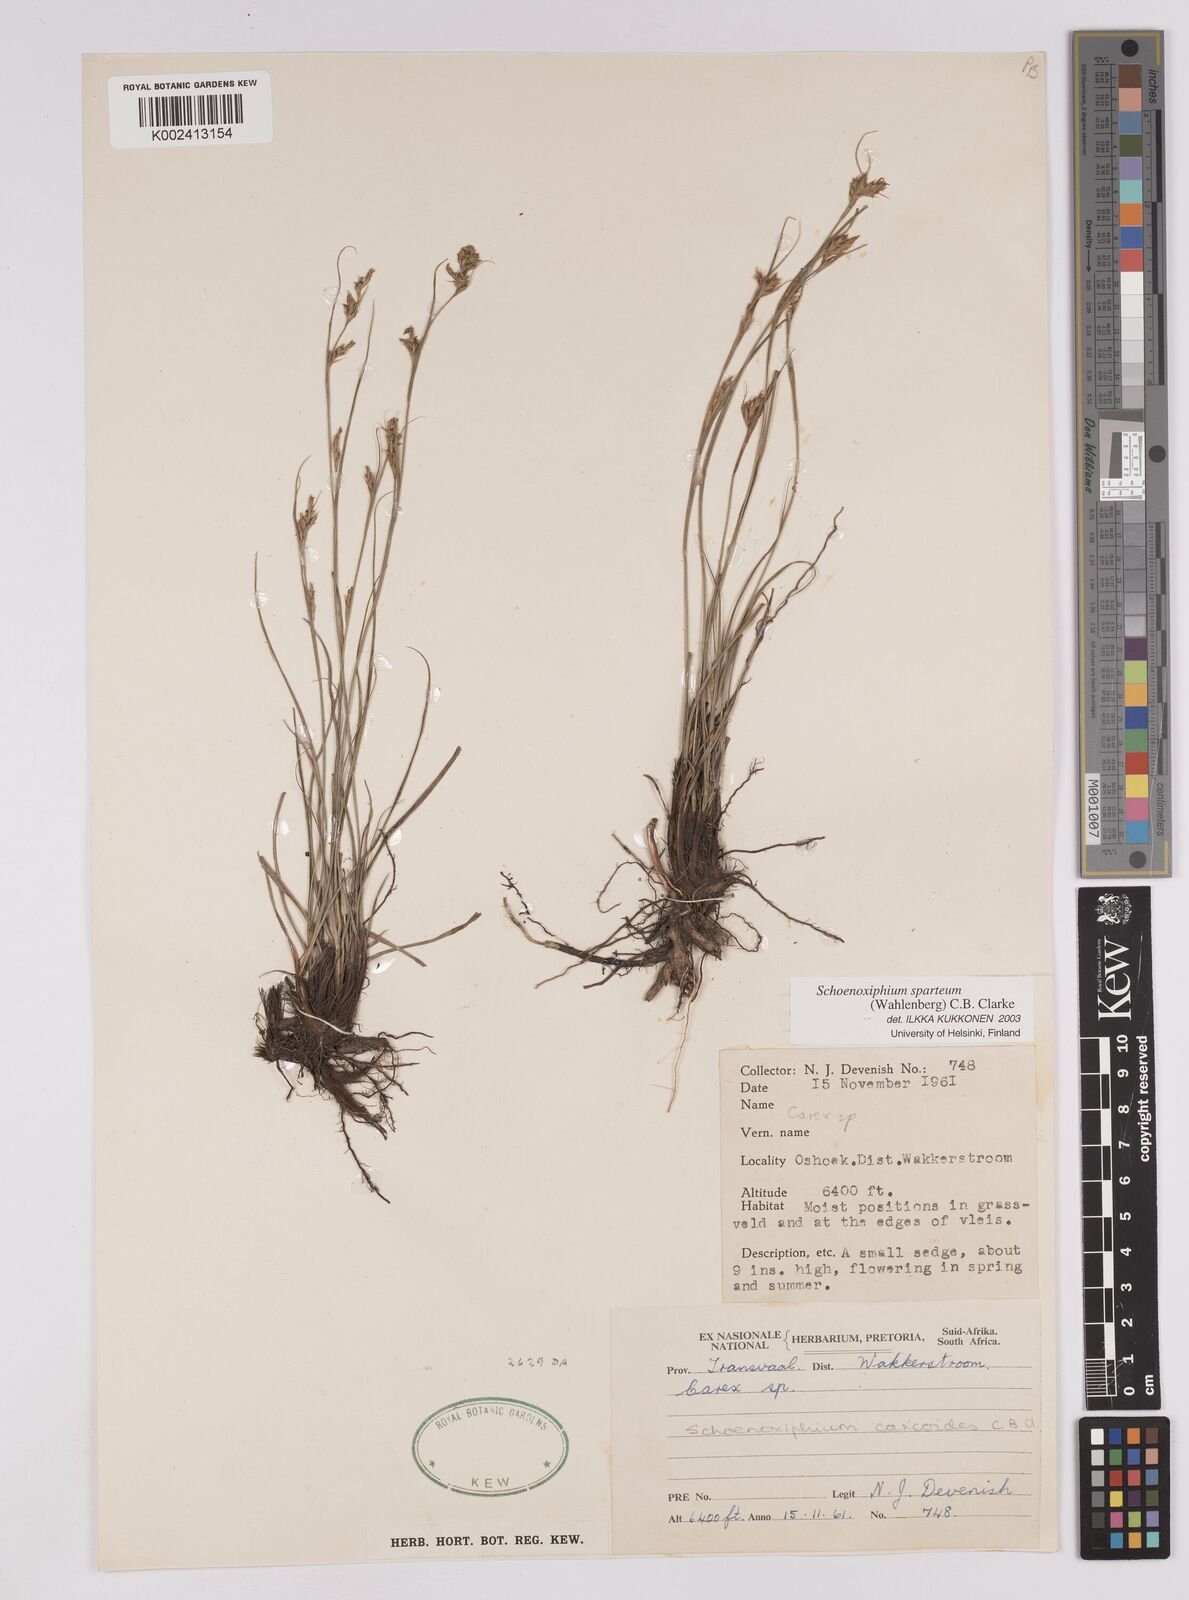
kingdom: Plantae
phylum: Tracheophyta
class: Liliopsida
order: Poales
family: Cyperaceae
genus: Carex
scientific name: Carex spartea
